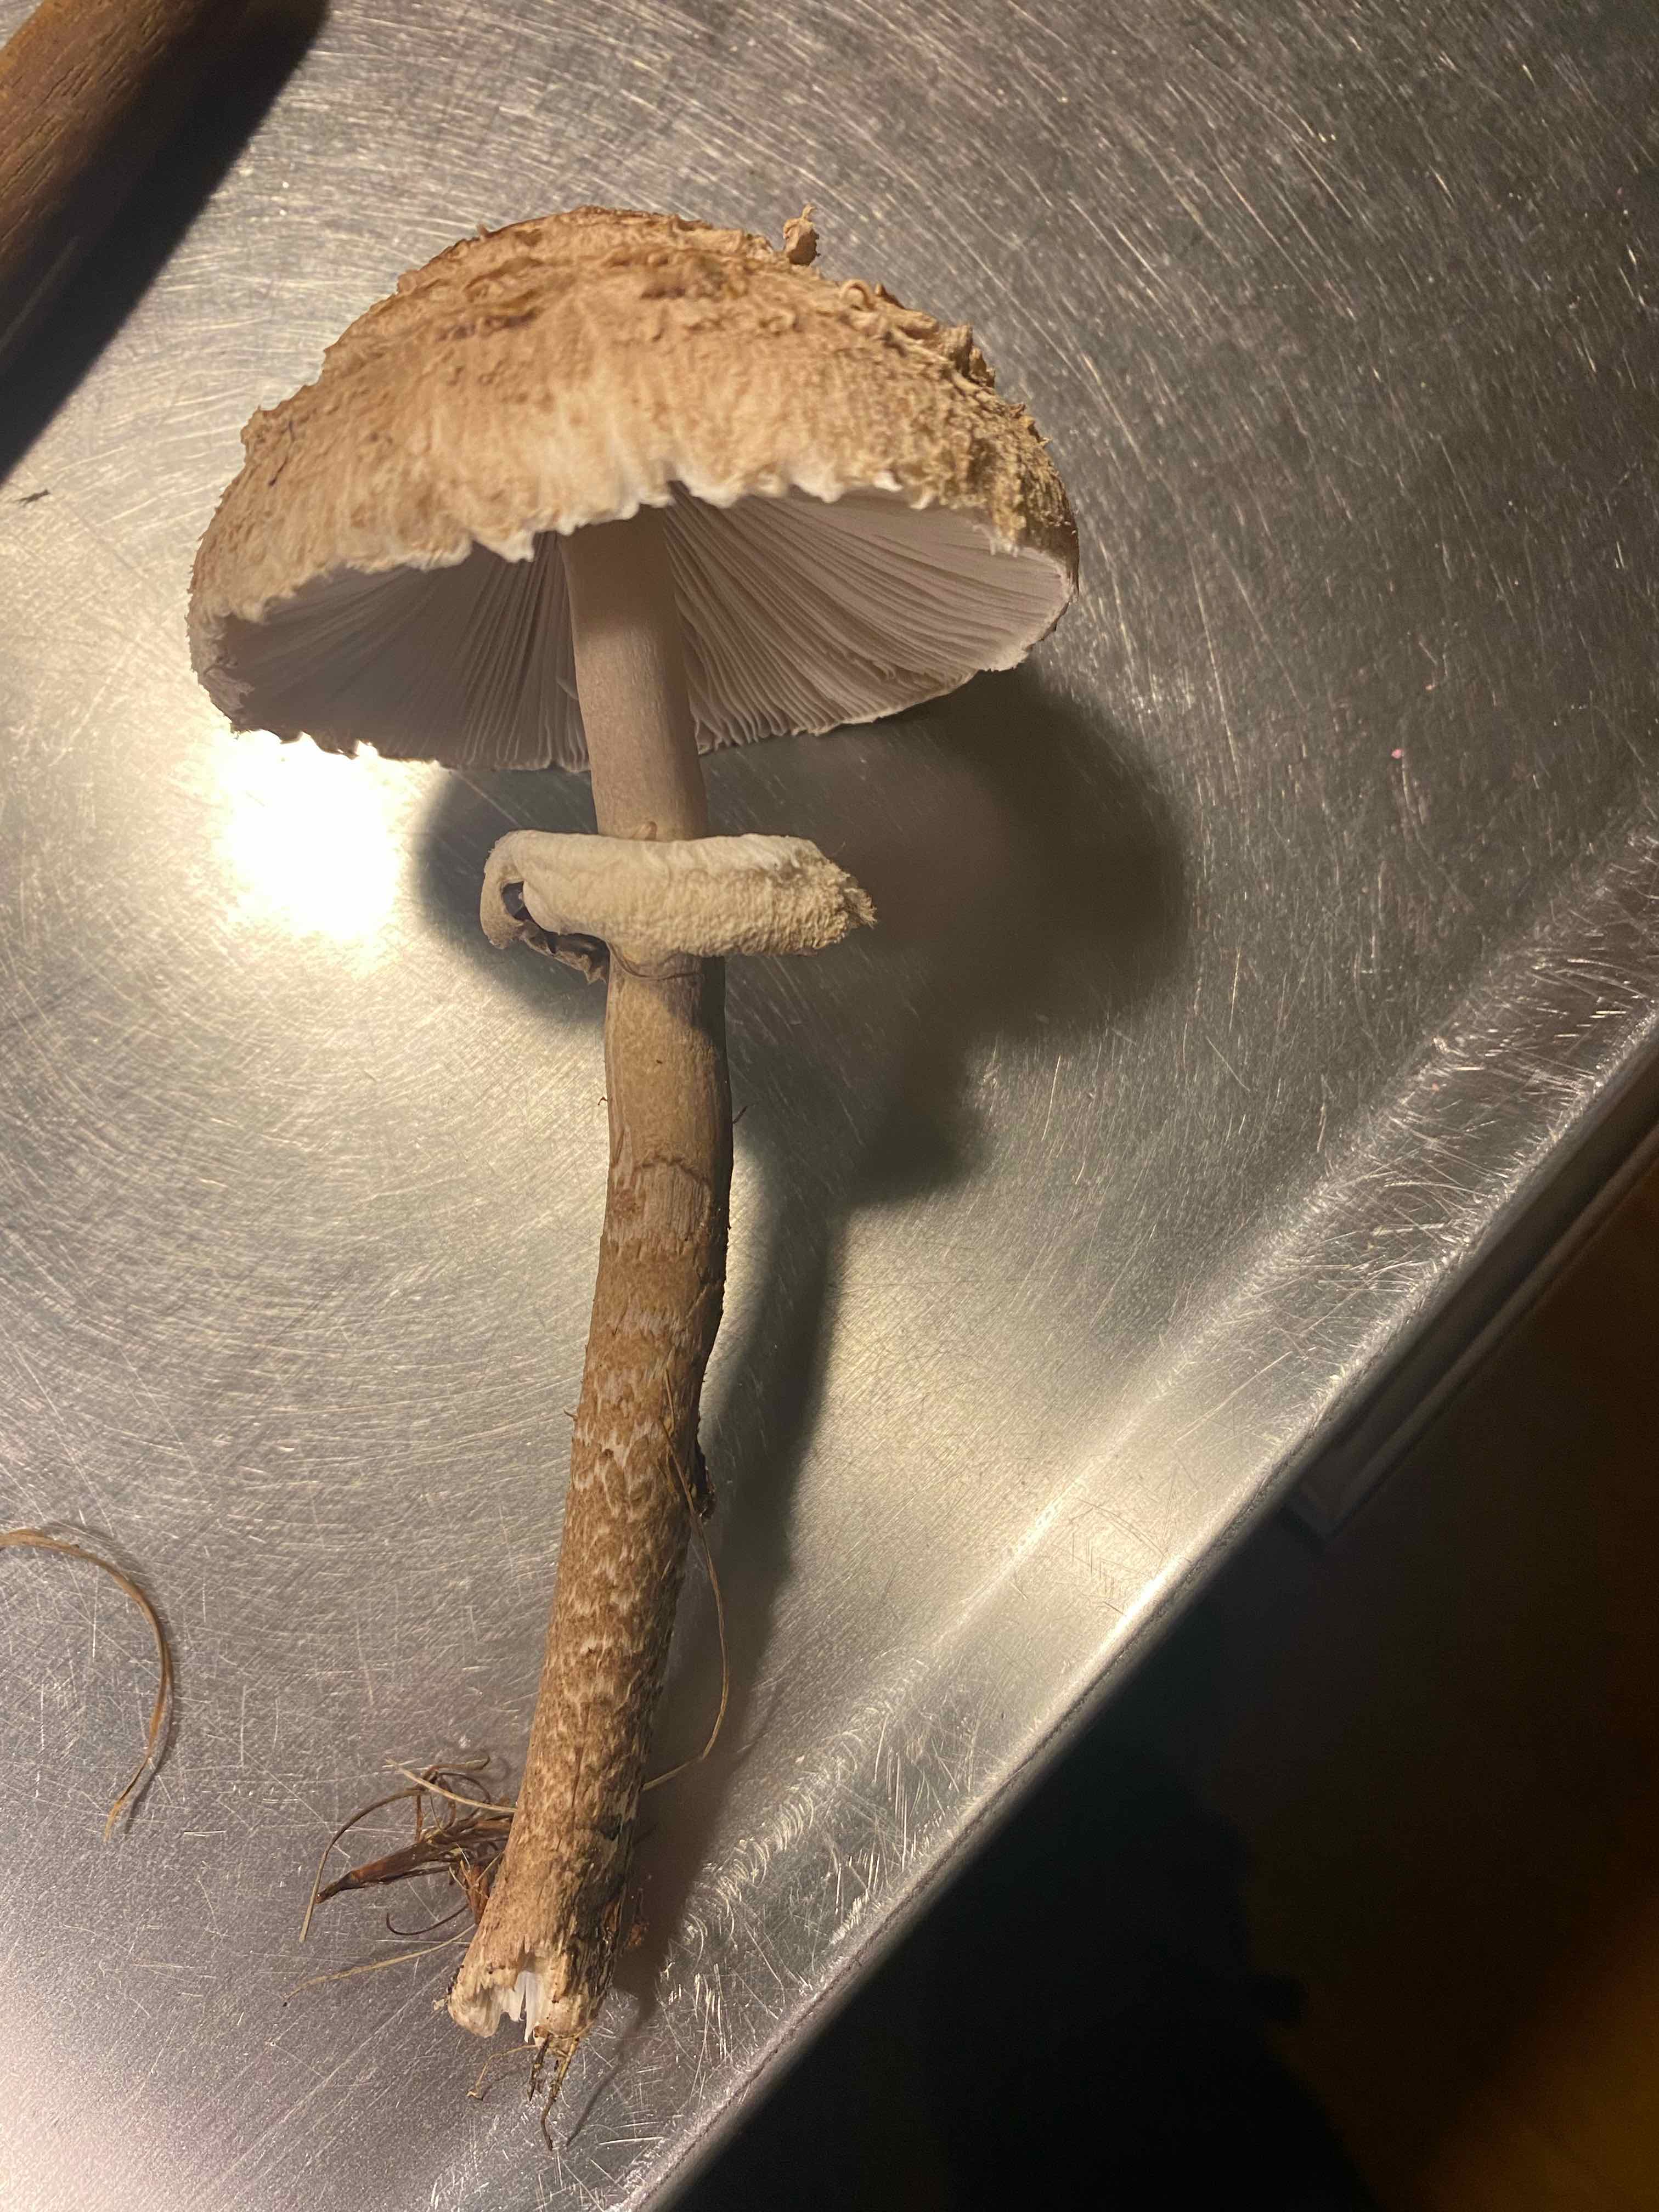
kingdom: Fungi
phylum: Basidiomycota
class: Agaricomycetes
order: Agaricales
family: Agaricaceae
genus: Macrolepiota
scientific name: Macrolepiota mastoidea
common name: puklet kæmpeparasolhat
